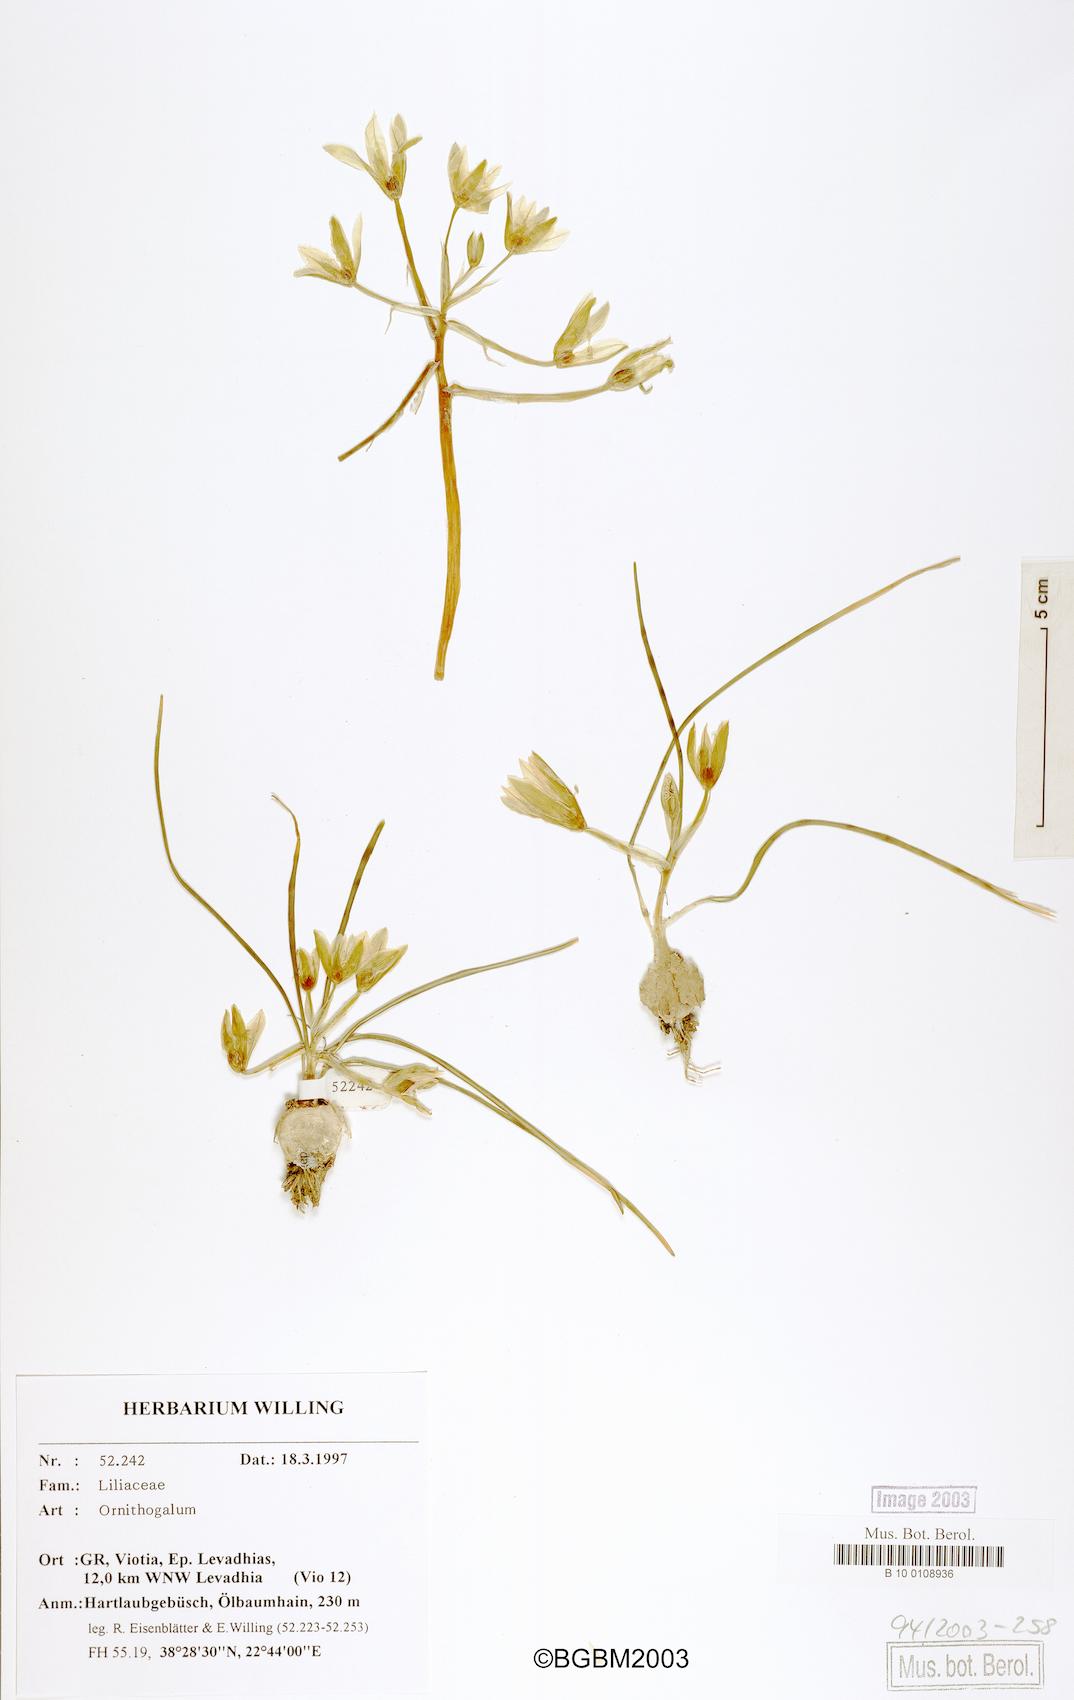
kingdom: Plantae
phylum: Tracheophyta
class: Liliopsida
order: Asparagales
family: Asparagaceae
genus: Ornithogalum
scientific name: Ornithogalum
